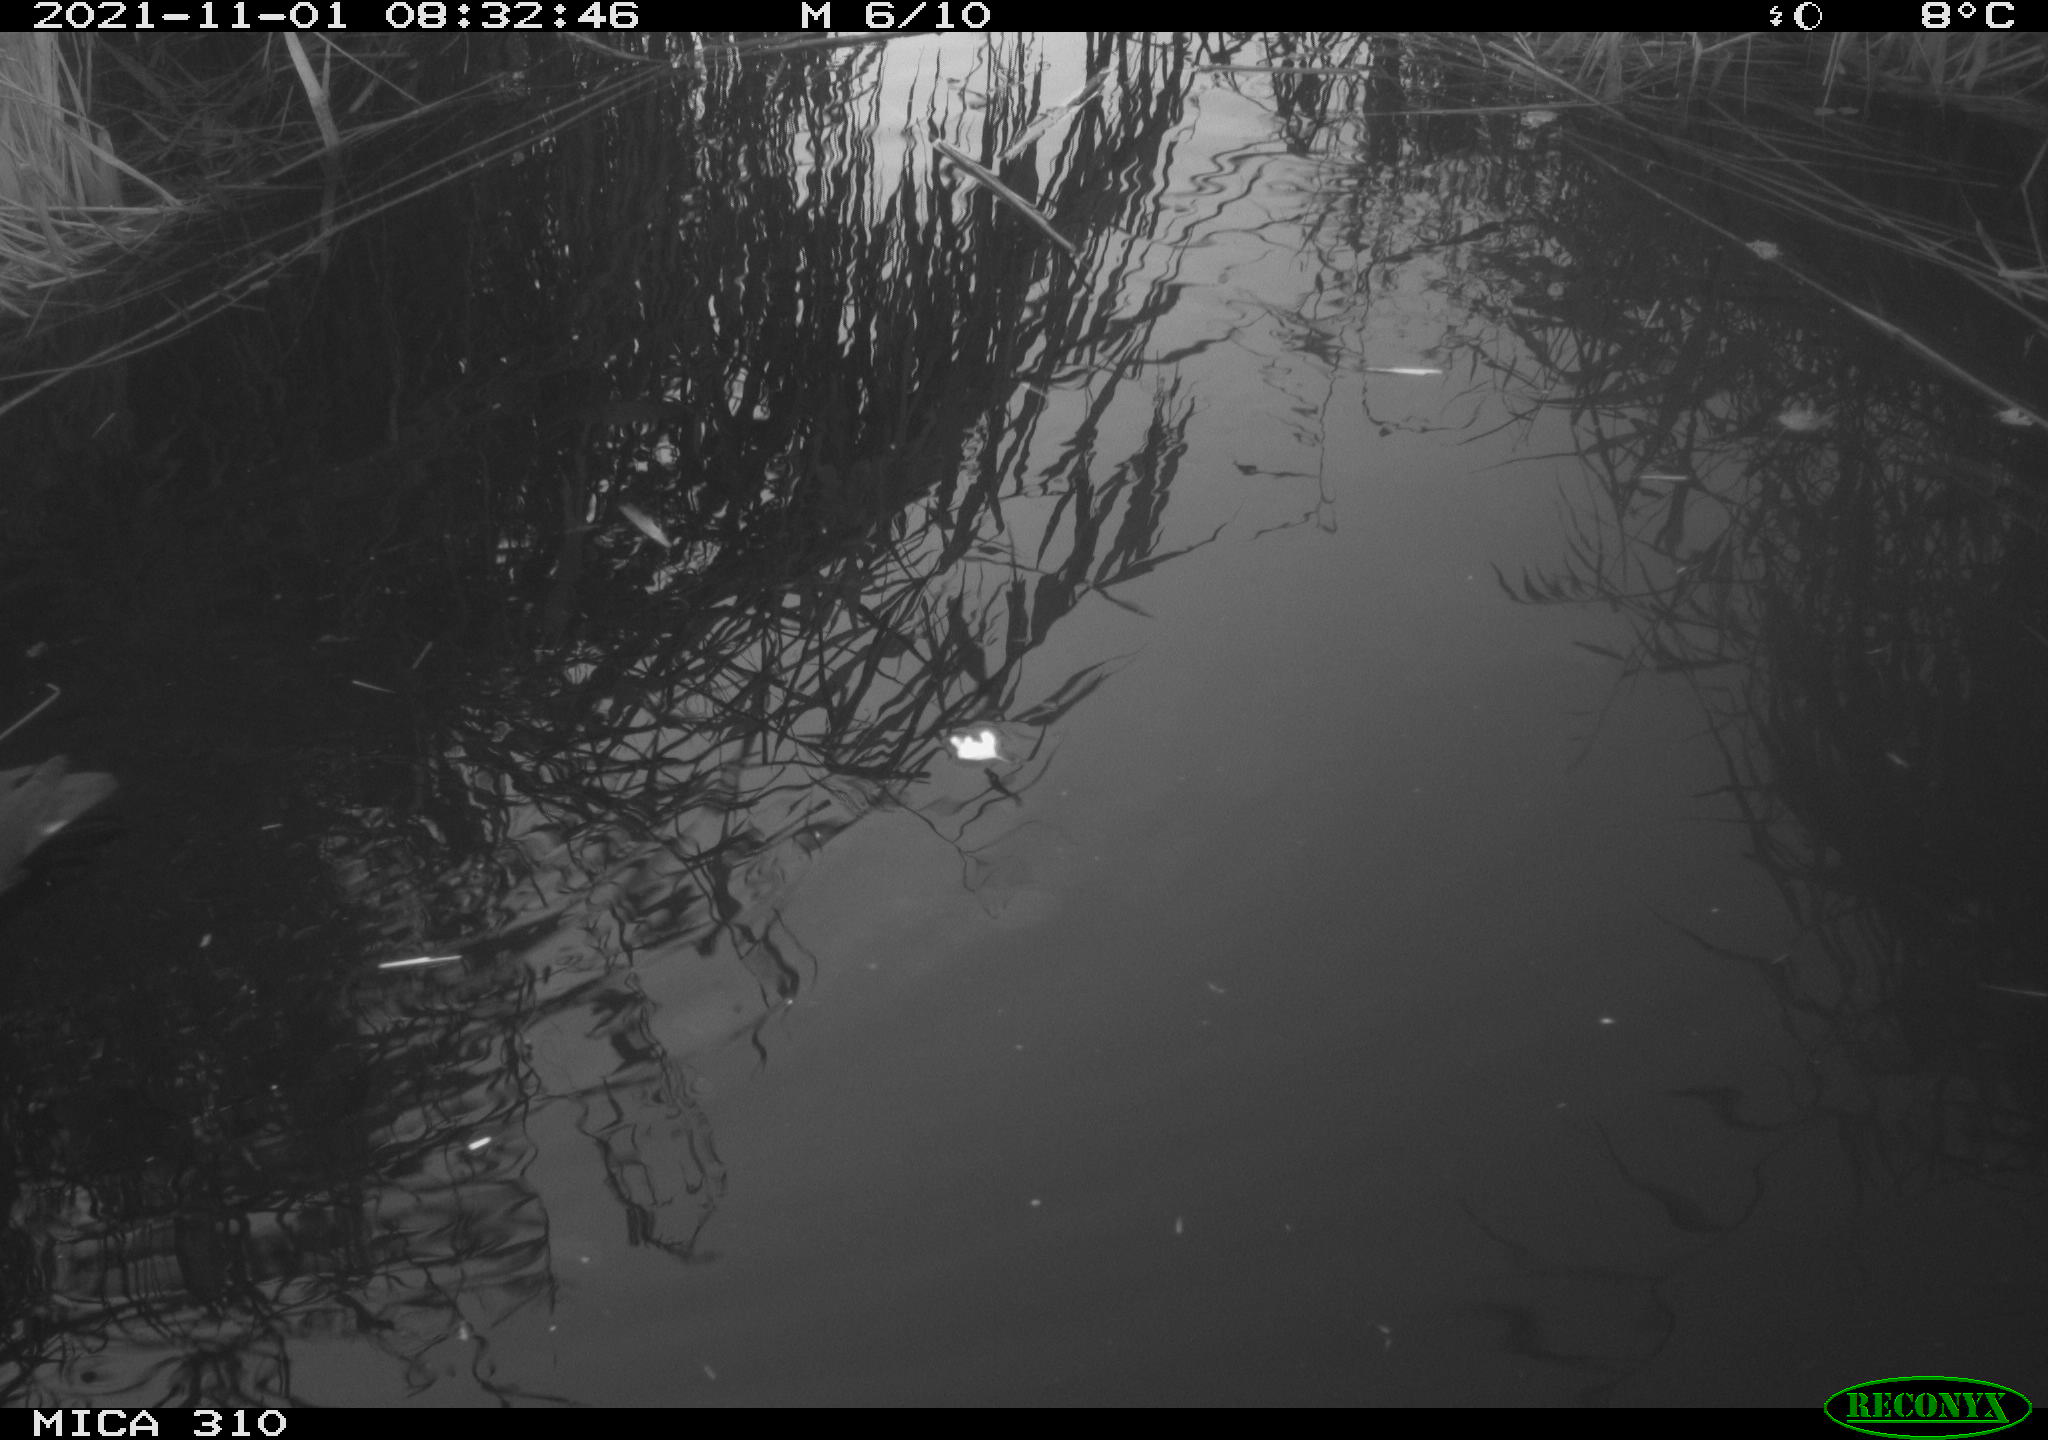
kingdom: Animalia
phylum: Chordata
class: Aves
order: Gruiformes
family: Rallidae
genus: Gallinula
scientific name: Gallinula chloropus
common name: Common moorhen
